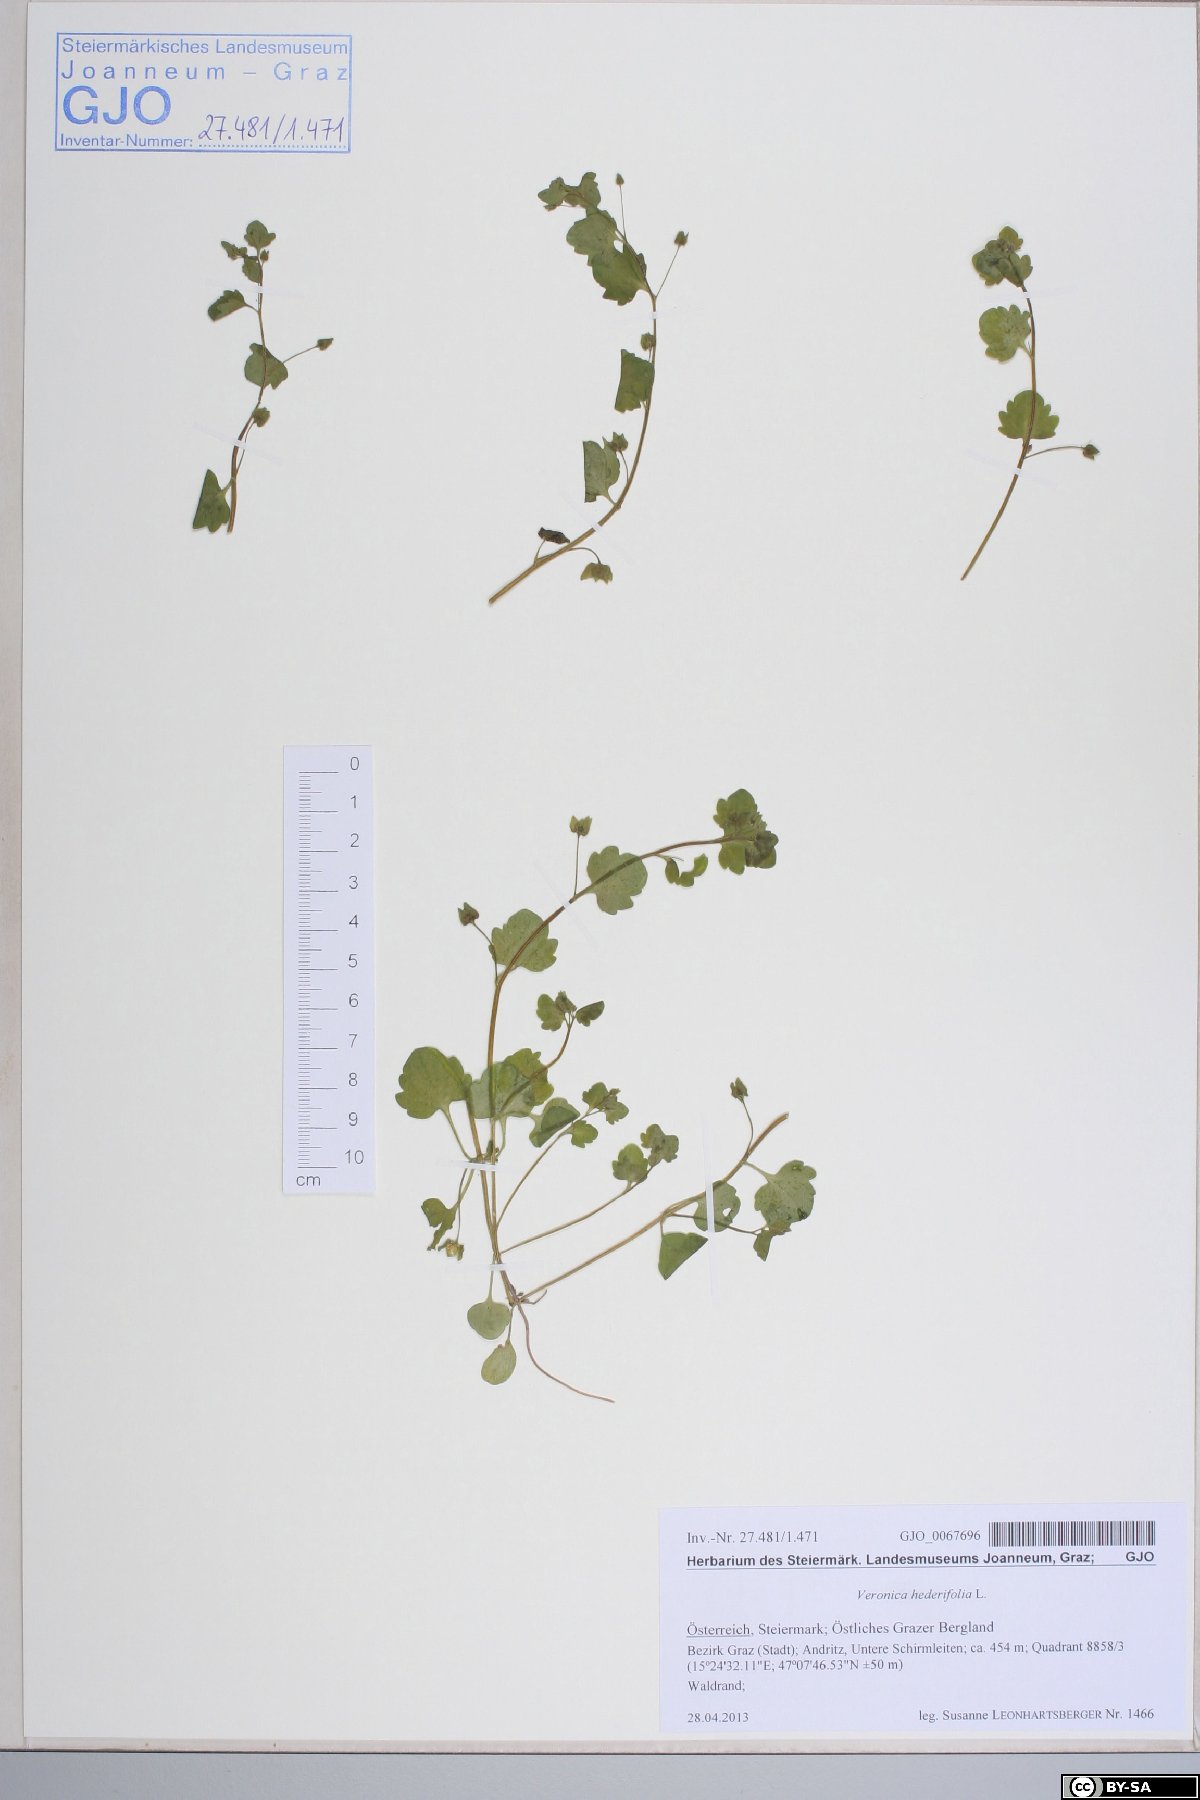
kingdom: Plantae
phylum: Tracheophyta
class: Magnoliopsida
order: Lamiales
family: Plantaginaceae
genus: Veronica
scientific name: Veronica hederifolia
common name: Ivy-leaved speedwell
